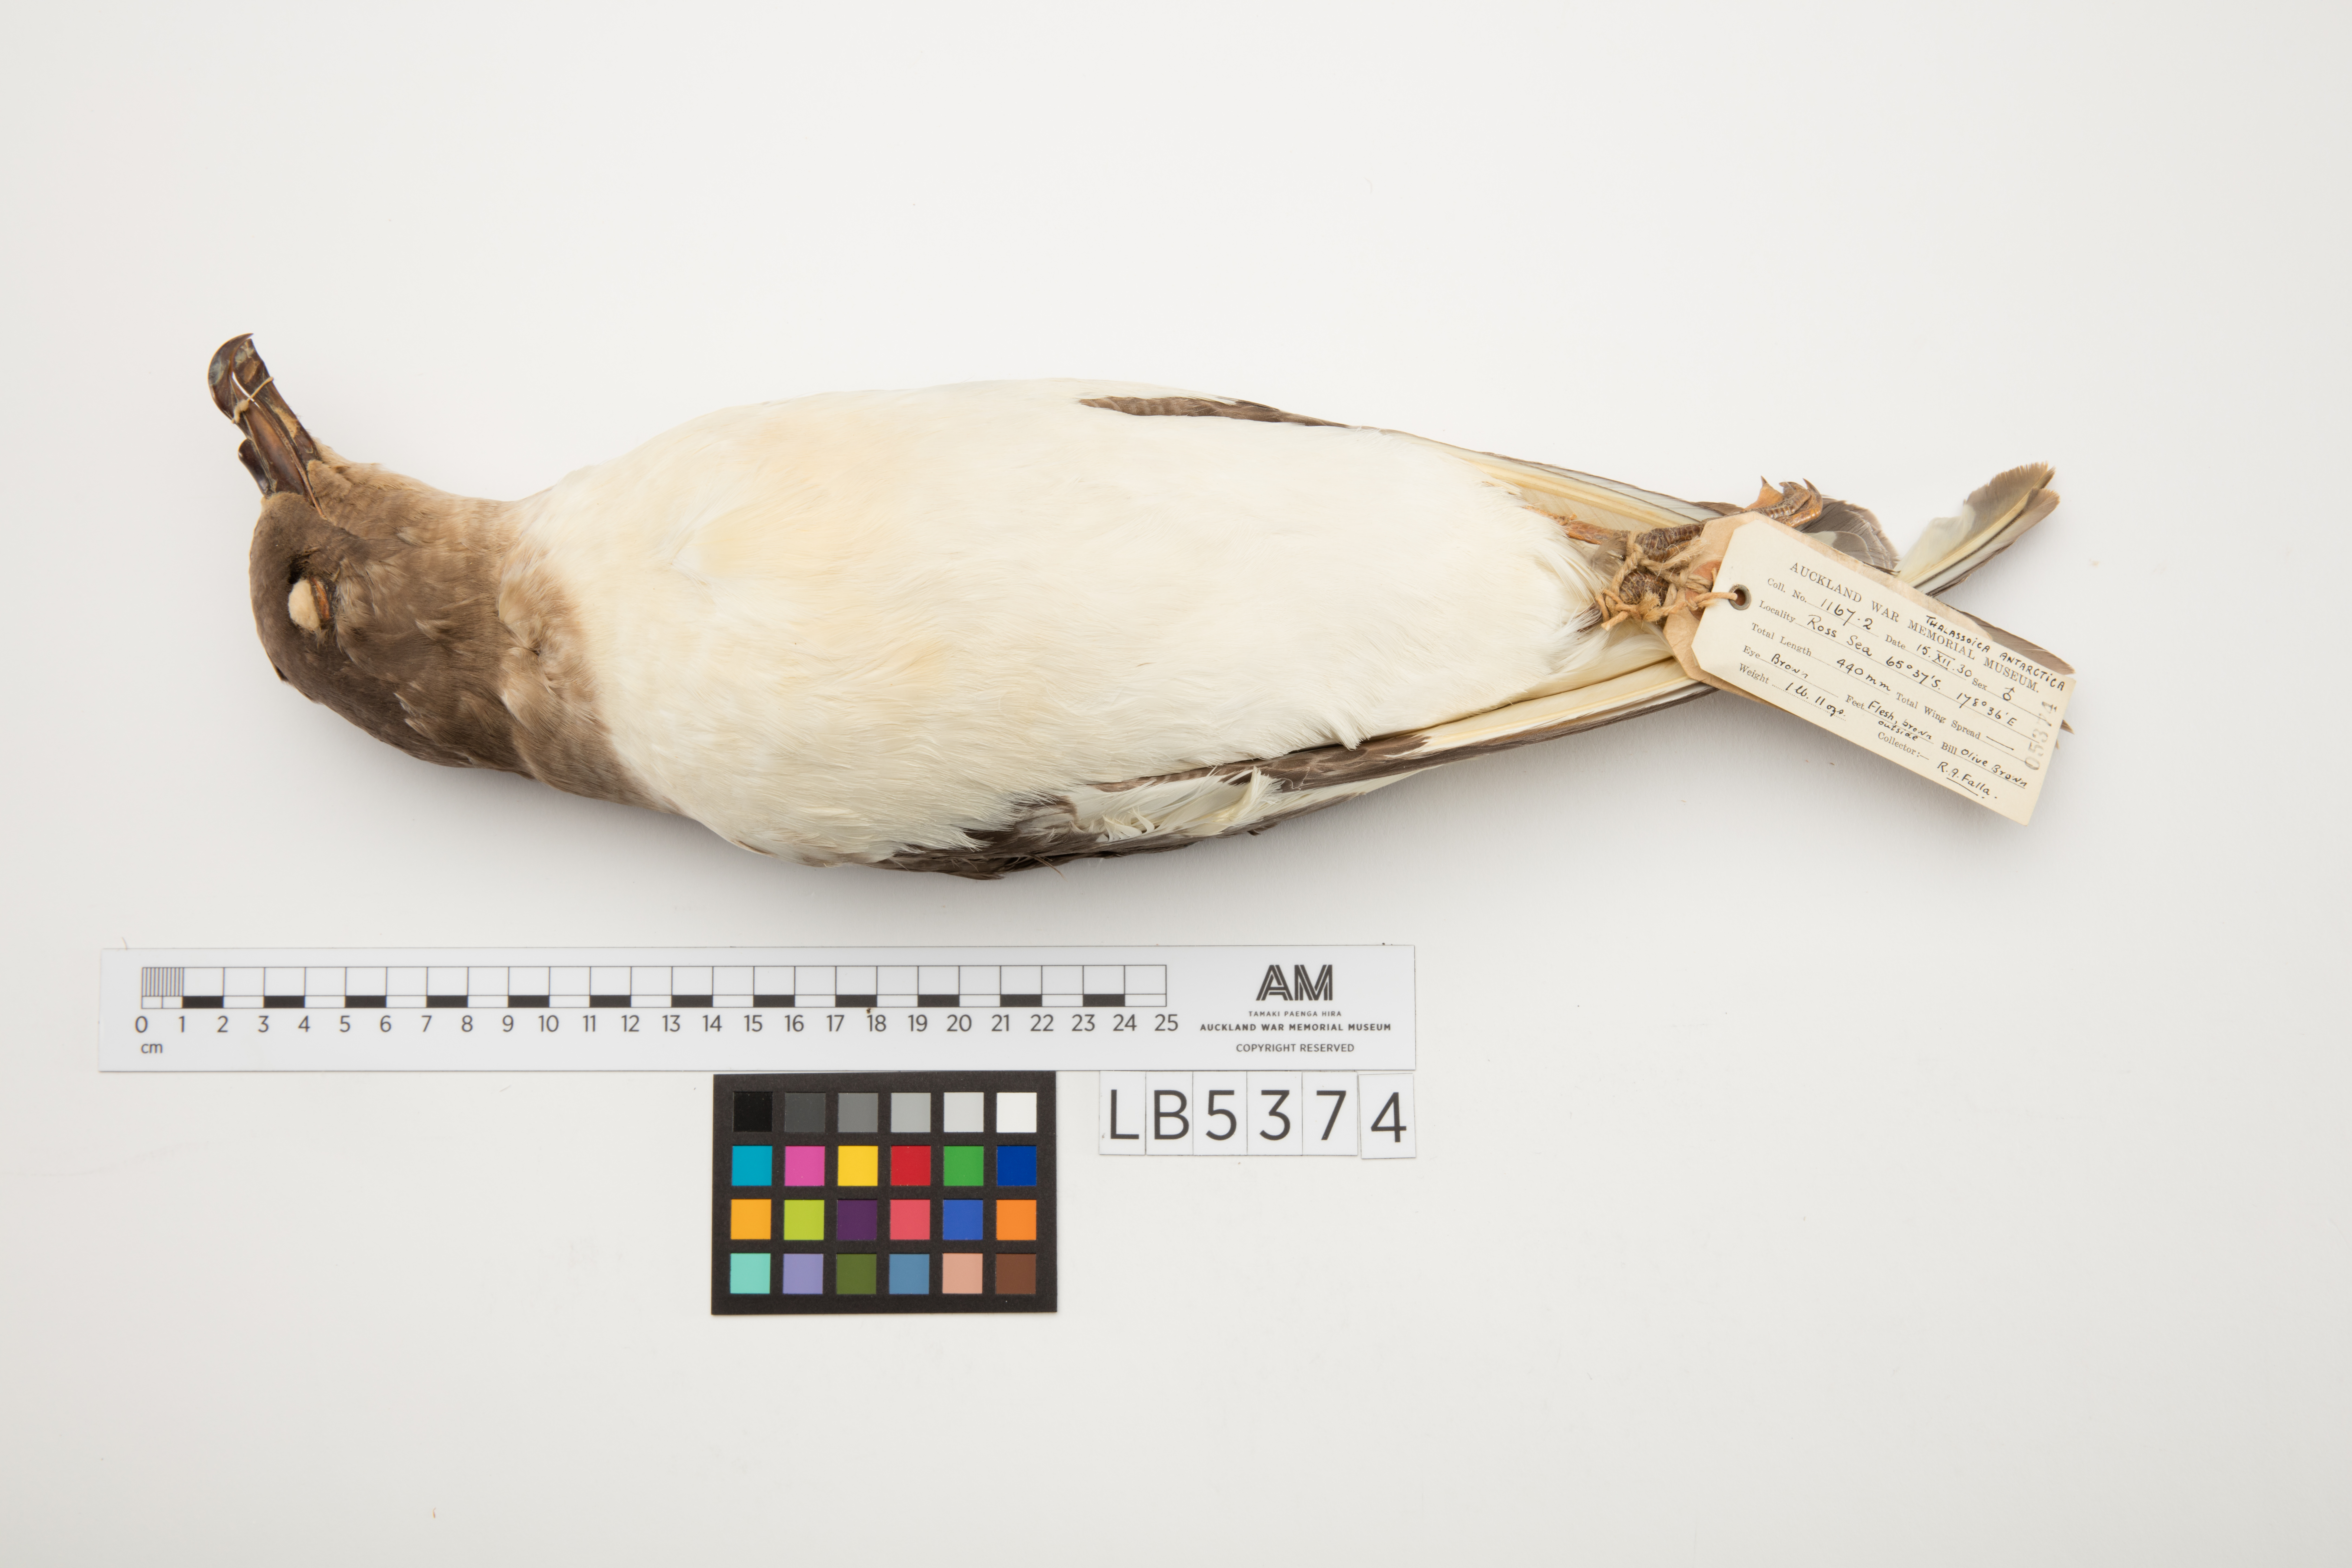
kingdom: Animalia
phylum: Chordata
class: Aves
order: Procellariiformes
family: Procellariidae
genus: Thalassoica
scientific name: Thalassoica antarctica
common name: Antarctic petrel
